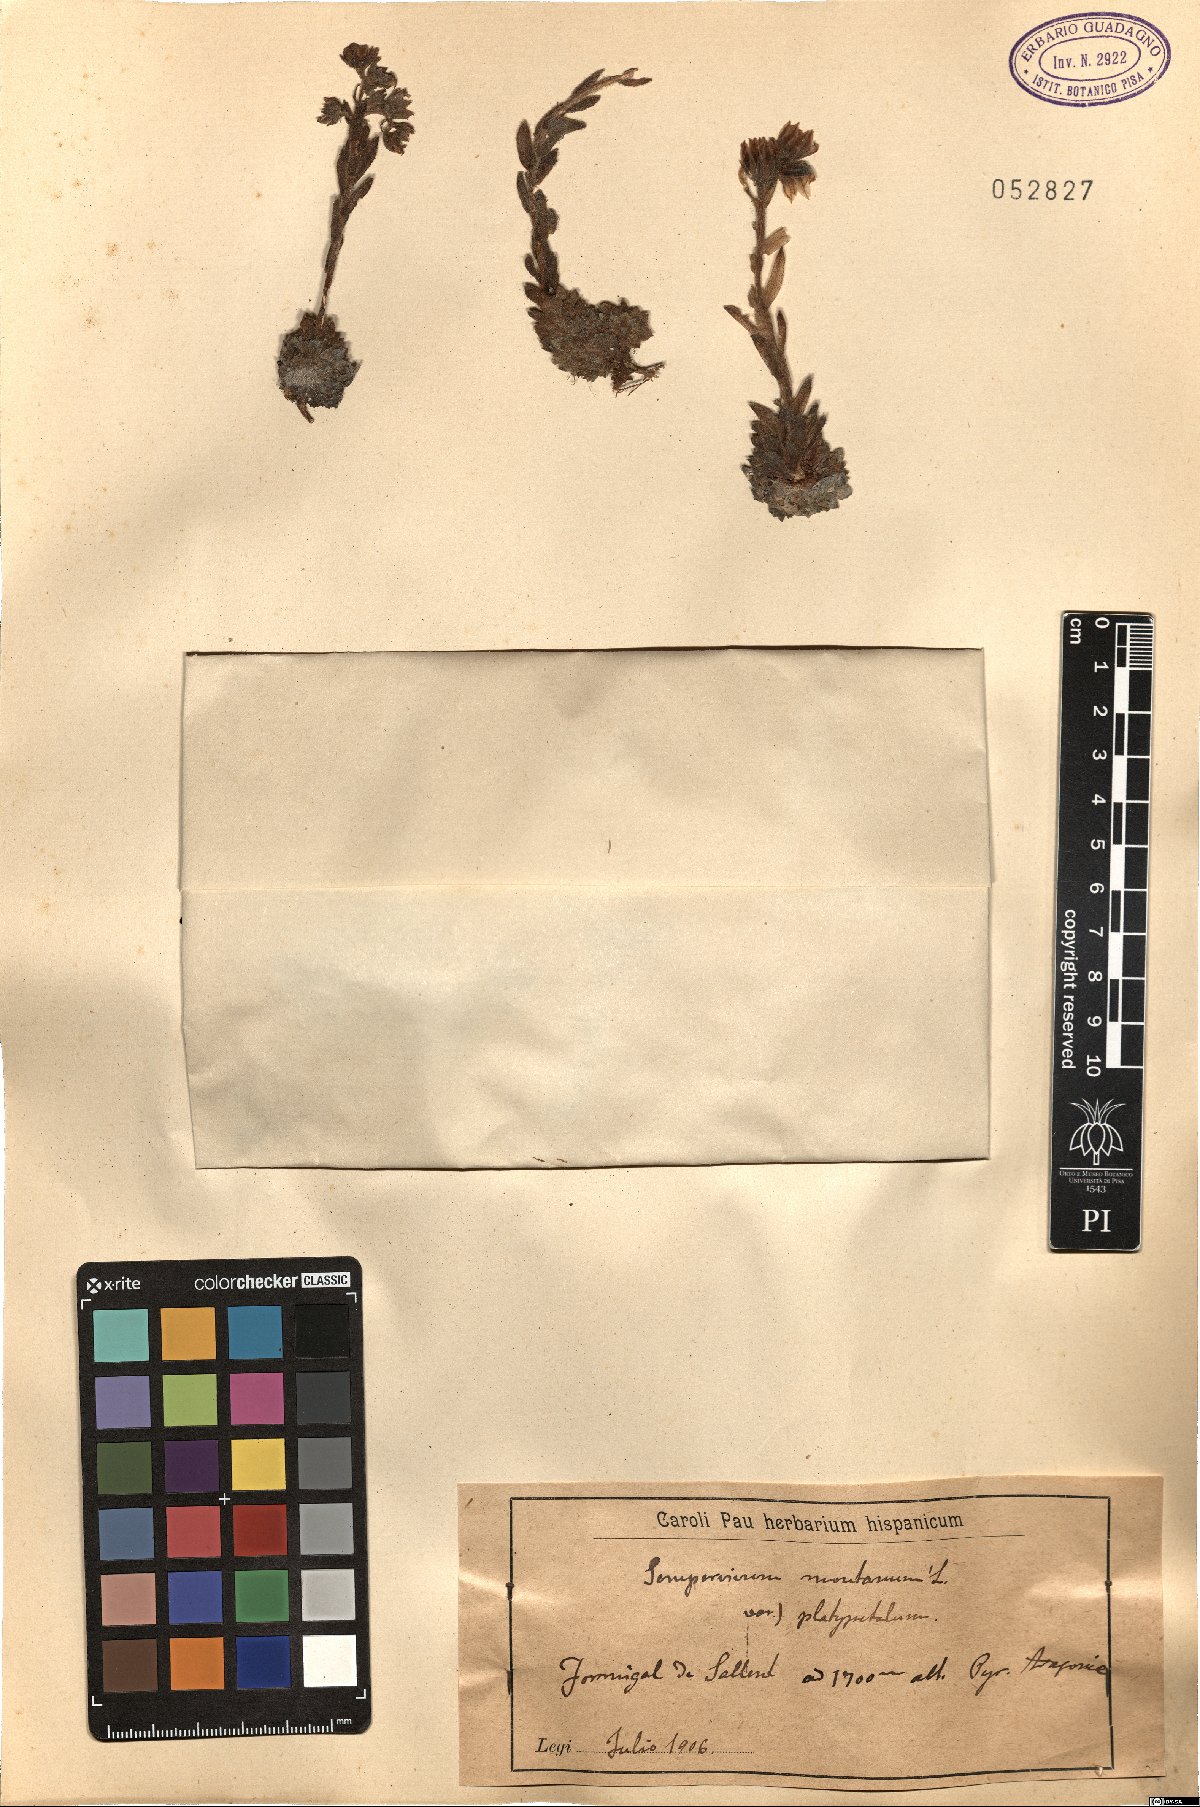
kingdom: Plantae
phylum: Tracheophyta
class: Magnoliopsida
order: Saxifragales
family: Crassulaceae
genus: Sempervivum
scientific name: Sempervivum montanum
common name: Mountain house-leek
